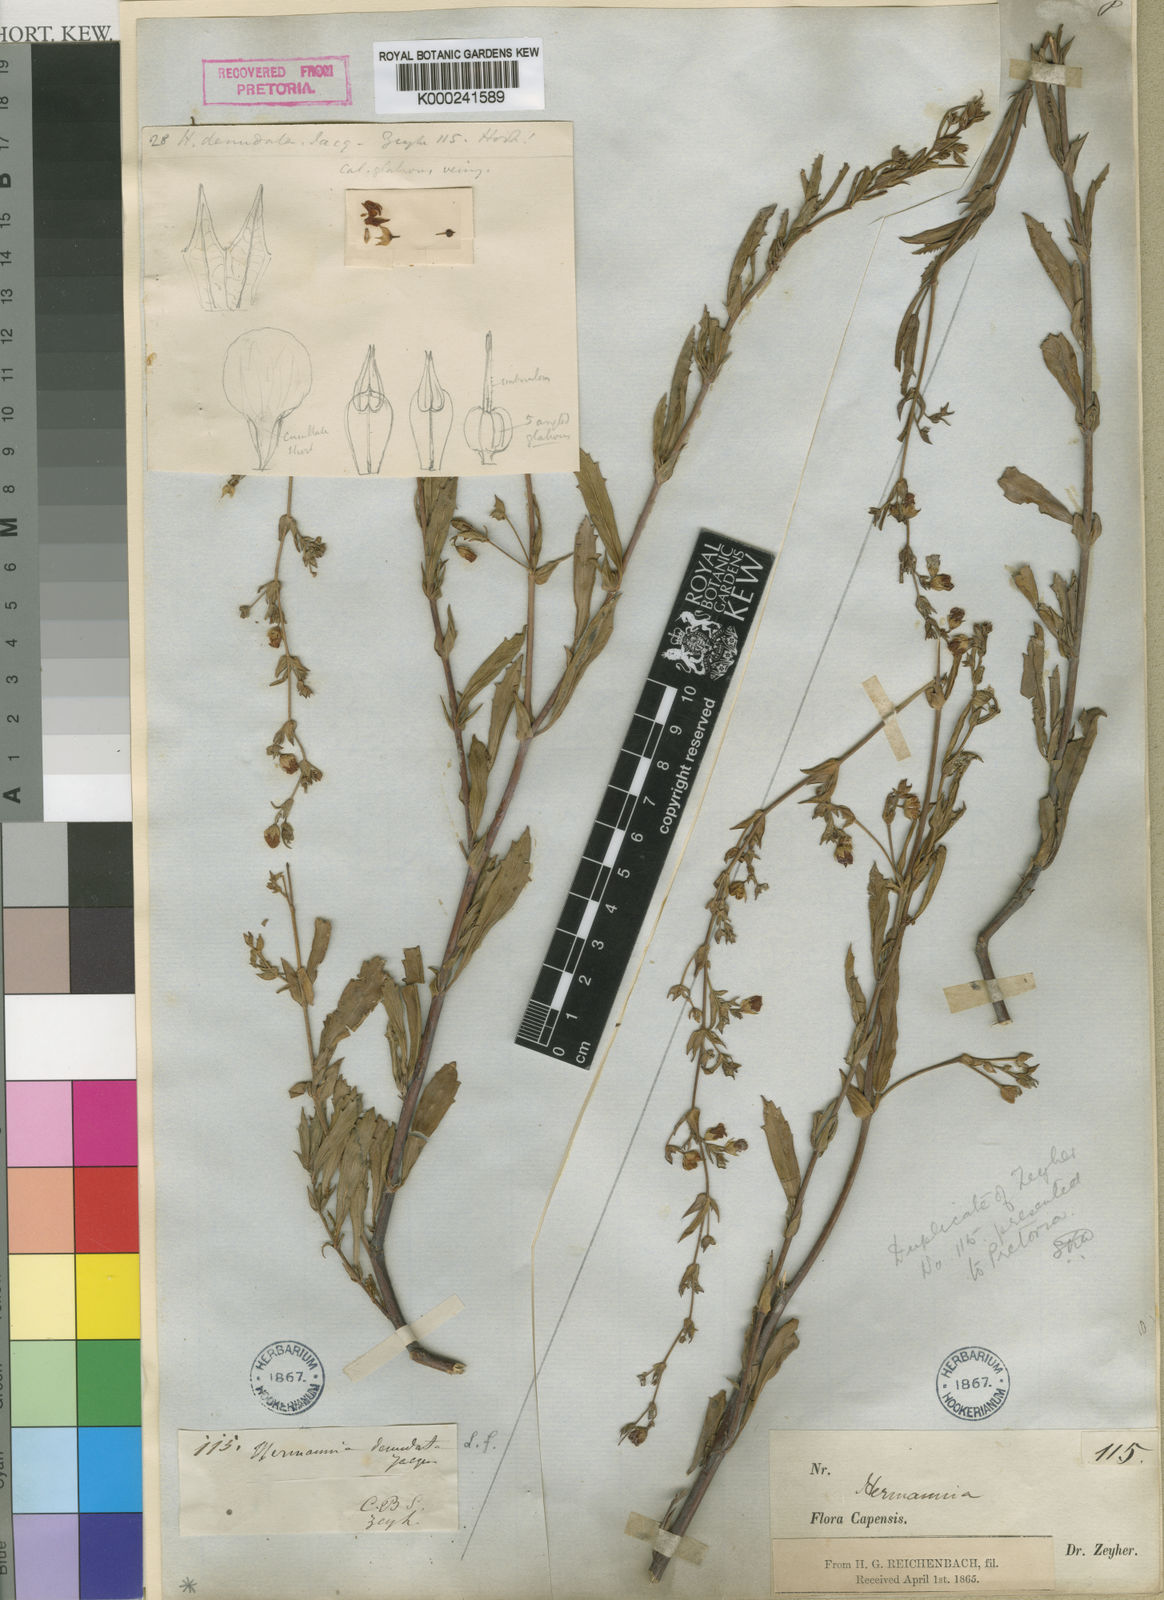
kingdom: Plantae
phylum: Tracheophyta
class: Magnoliopsida
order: Malvales
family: Malvaceae
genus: Hermannia
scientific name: Hermannia
